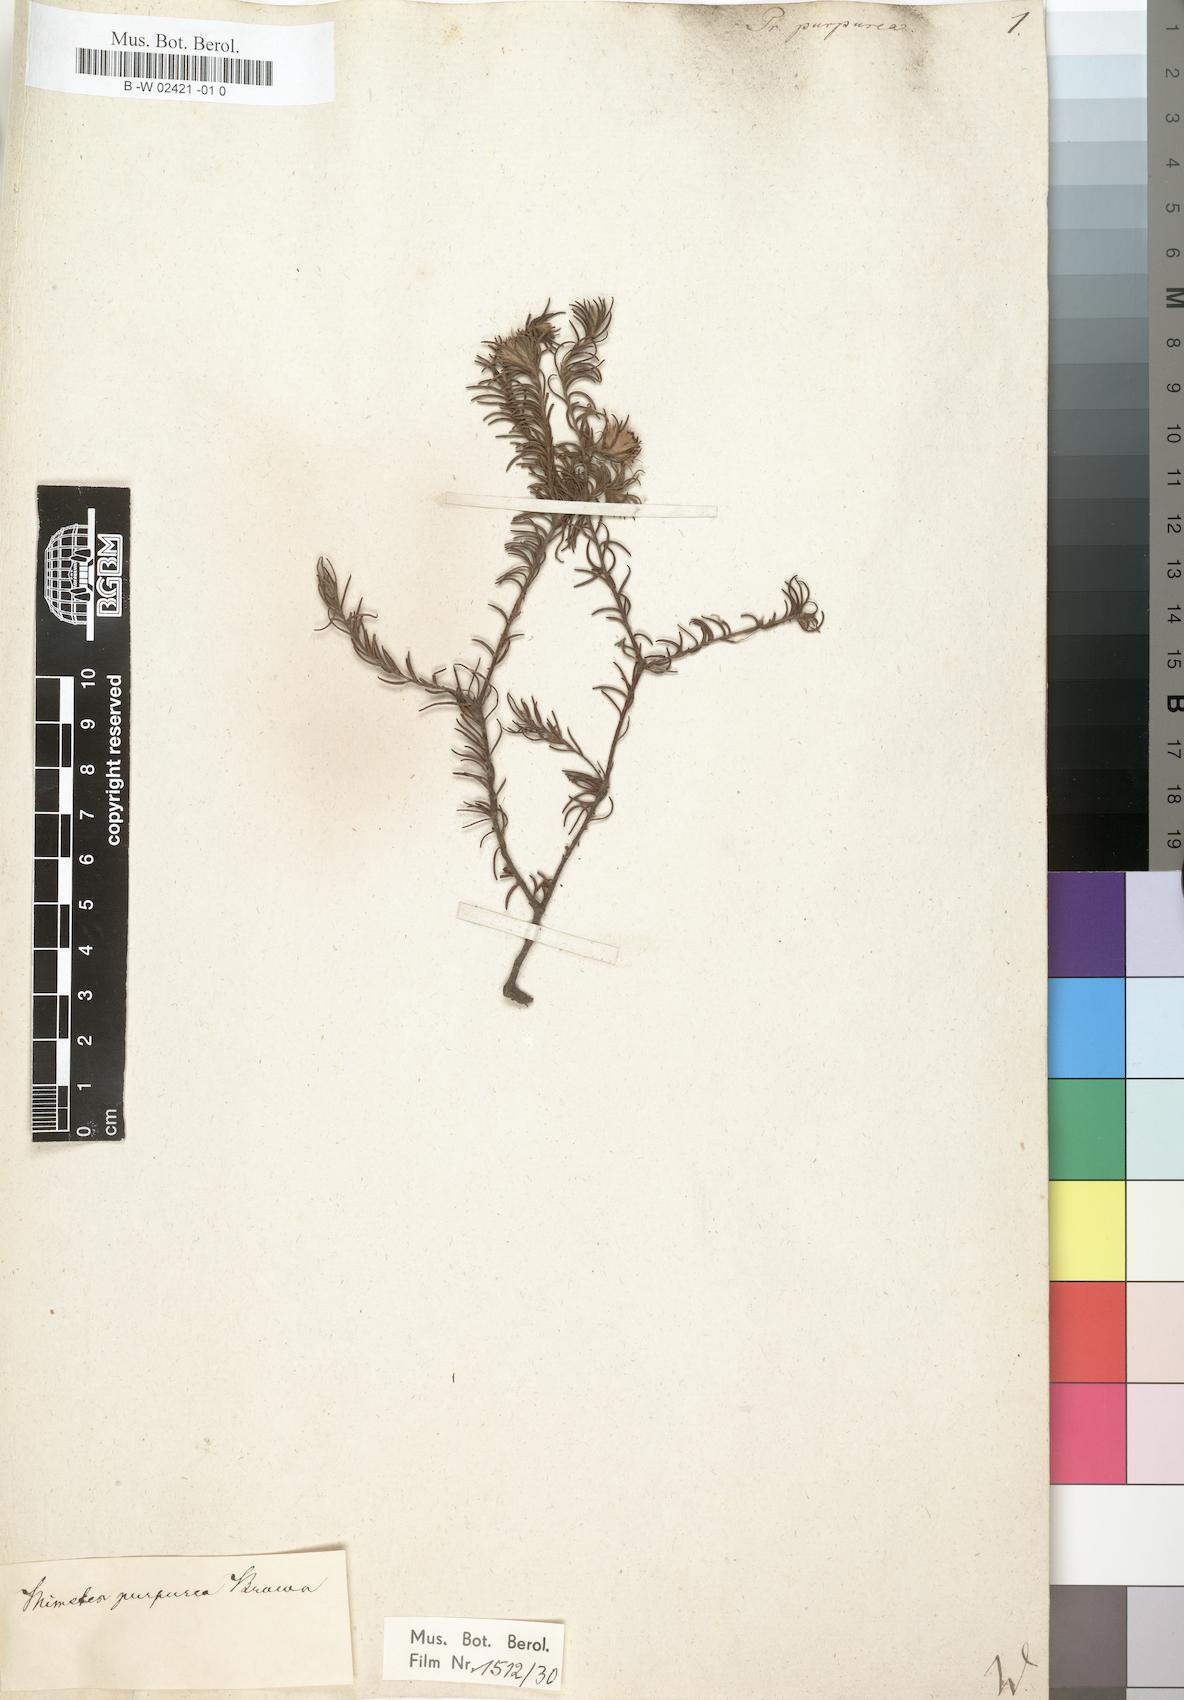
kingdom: Plantae
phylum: Tracheophyta
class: Magnoliopsida
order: Proteales
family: Proteaceae
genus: Diastella
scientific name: Diastella proteoides
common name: Flats silkypuff
